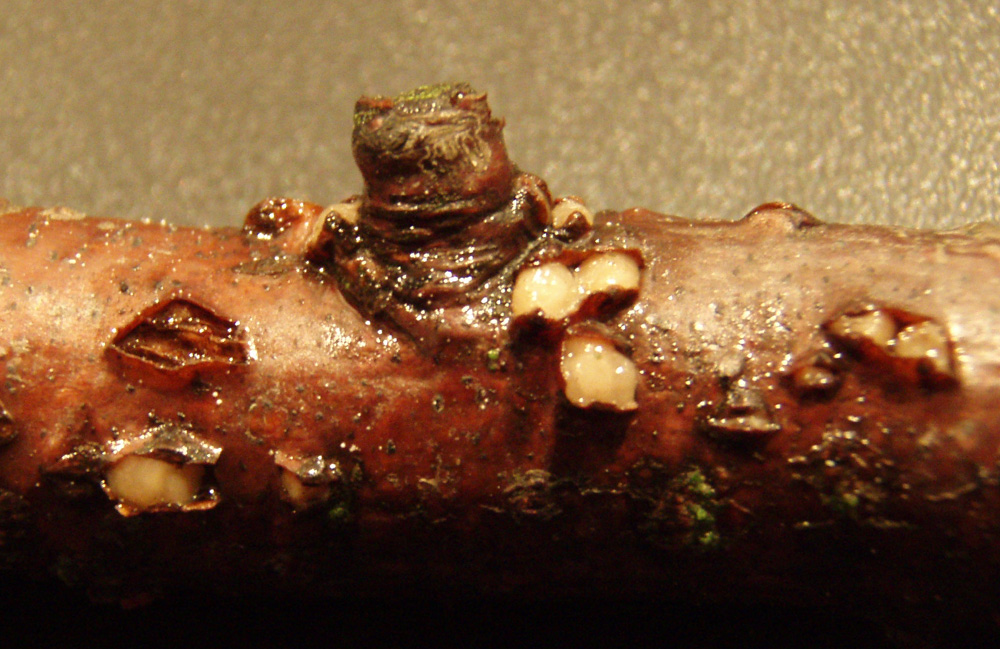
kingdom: Fungi
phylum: Basidiomycota
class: Pucciniomycetes
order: Platygloeales
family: Platygloeaceae
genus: Platygloea
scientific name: Platygloea disciformis
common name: linde-slimklat
